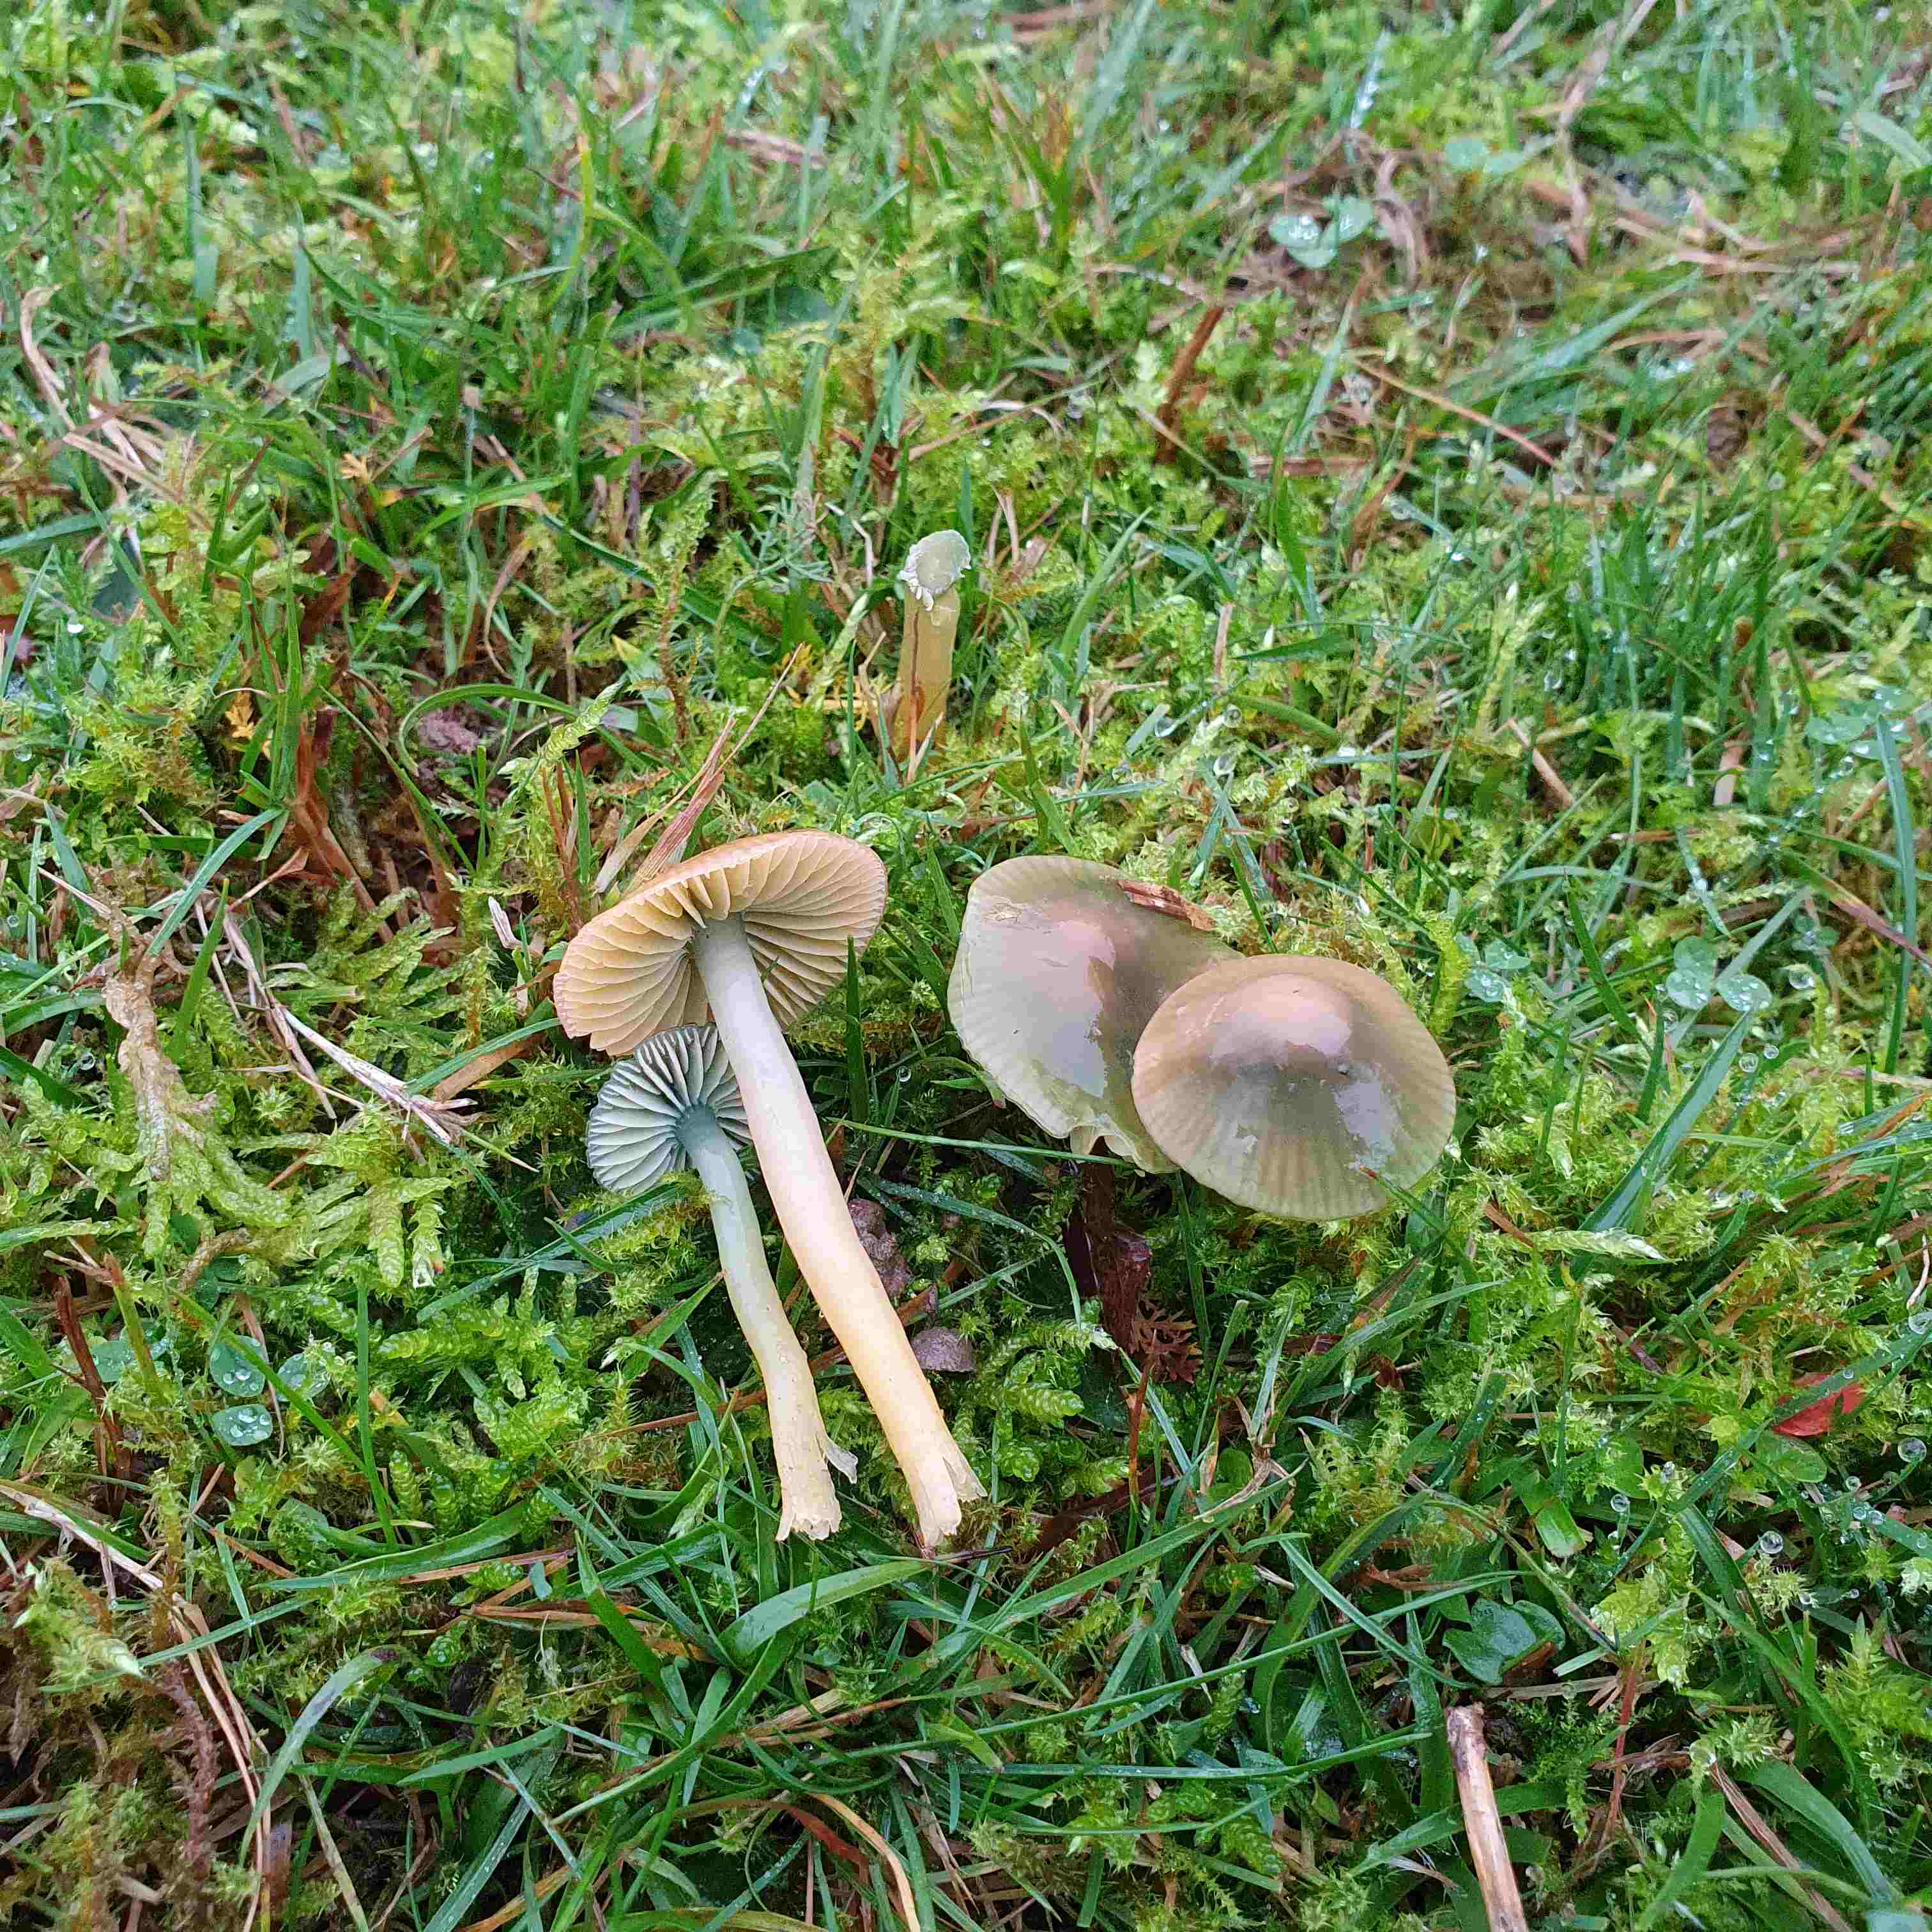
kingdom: Fungi
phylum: Basidiomycota
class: Agaricomycetes
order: Agaricales
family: Hygrophoraceae
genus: Gliophorus
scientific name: Gliophorus psittacinus
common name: papegøje-vokshat
